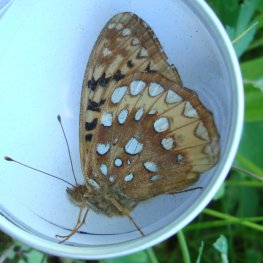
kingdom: Animalia
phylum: Arthropoda
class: Insecta
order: Lepidoptera
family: Nymphalidae
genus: Speyeria
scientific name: Speyeria cybele
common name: Great Spangled Fritillary
